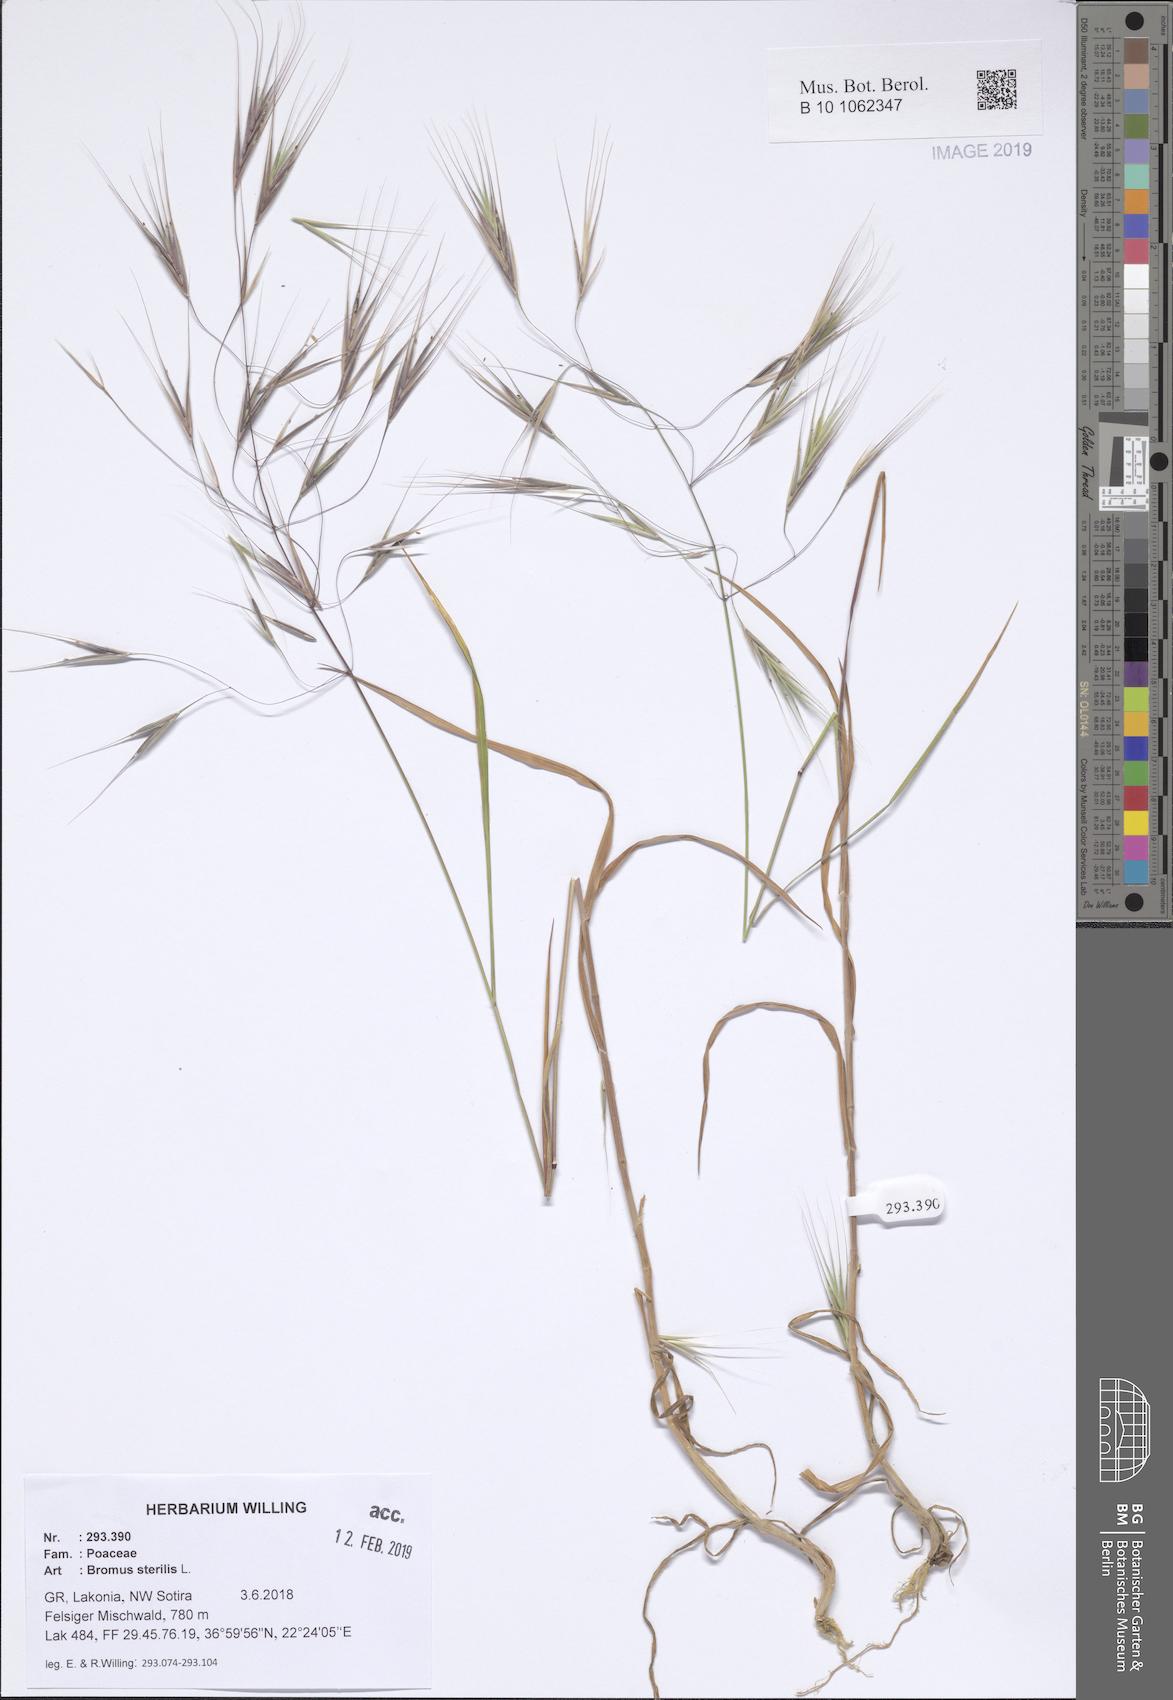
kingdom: Plantae
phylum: Tracheophyta
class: Liliopsida
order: Poales
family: Poaceae
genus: Bromus
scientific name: Bromus sterilis
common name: Poverty brome
